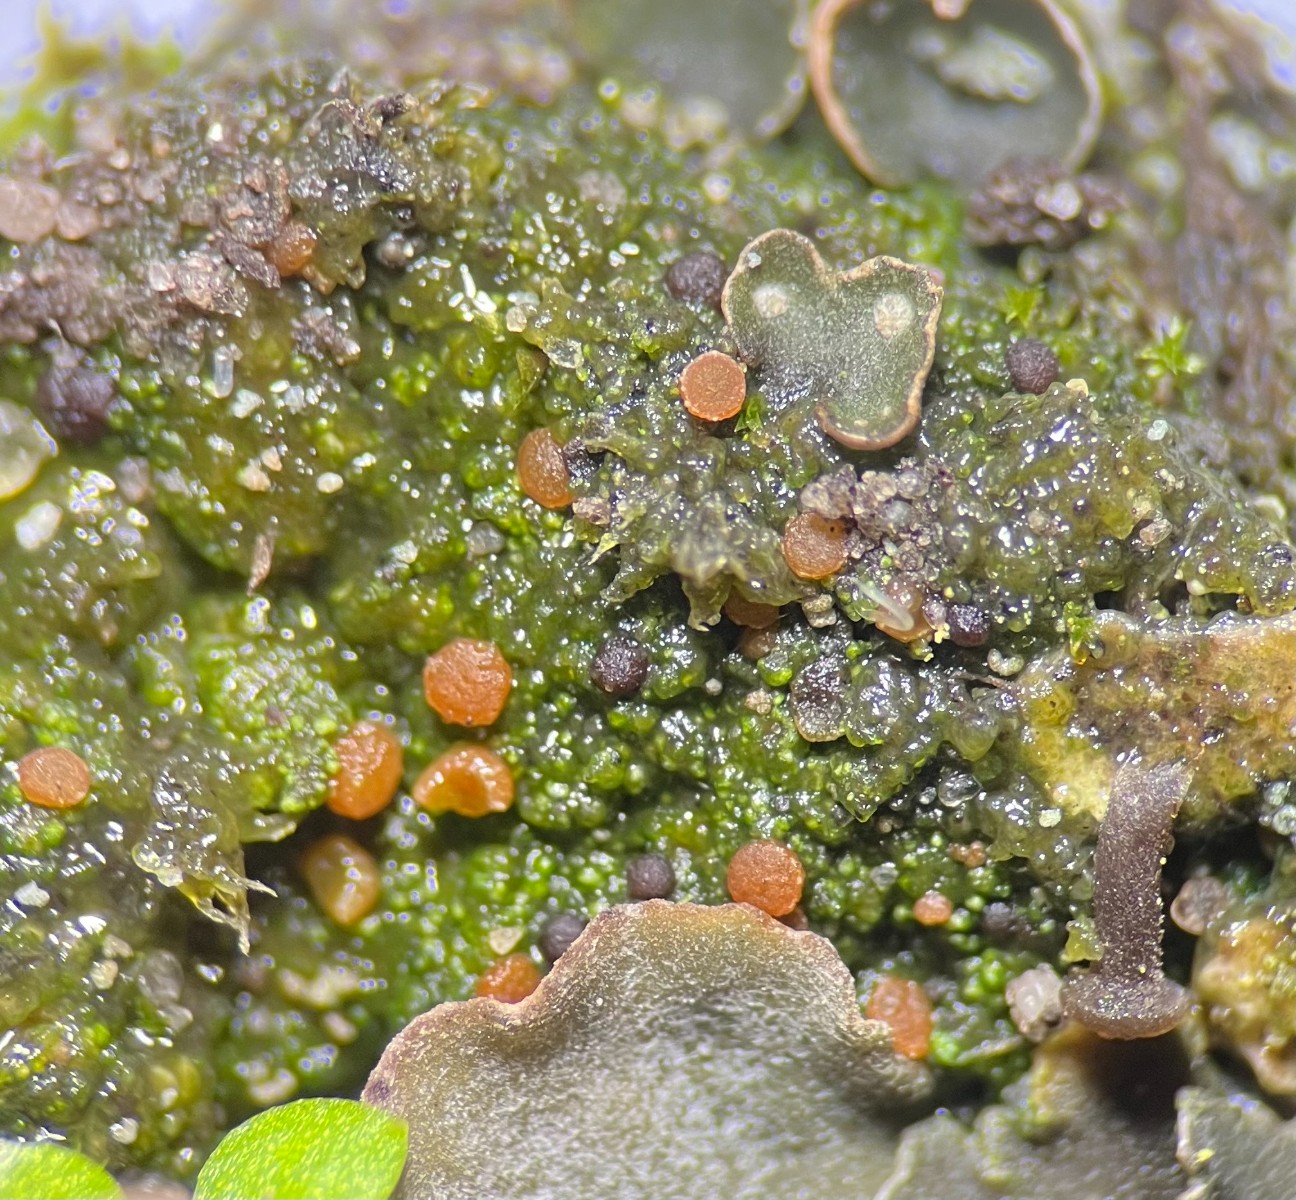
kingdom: Fungi
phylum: Ascomycota
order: Thelocarpales
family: Thelocarpaceae
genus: Sarcosagium
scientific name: Sarcosagium campestre
